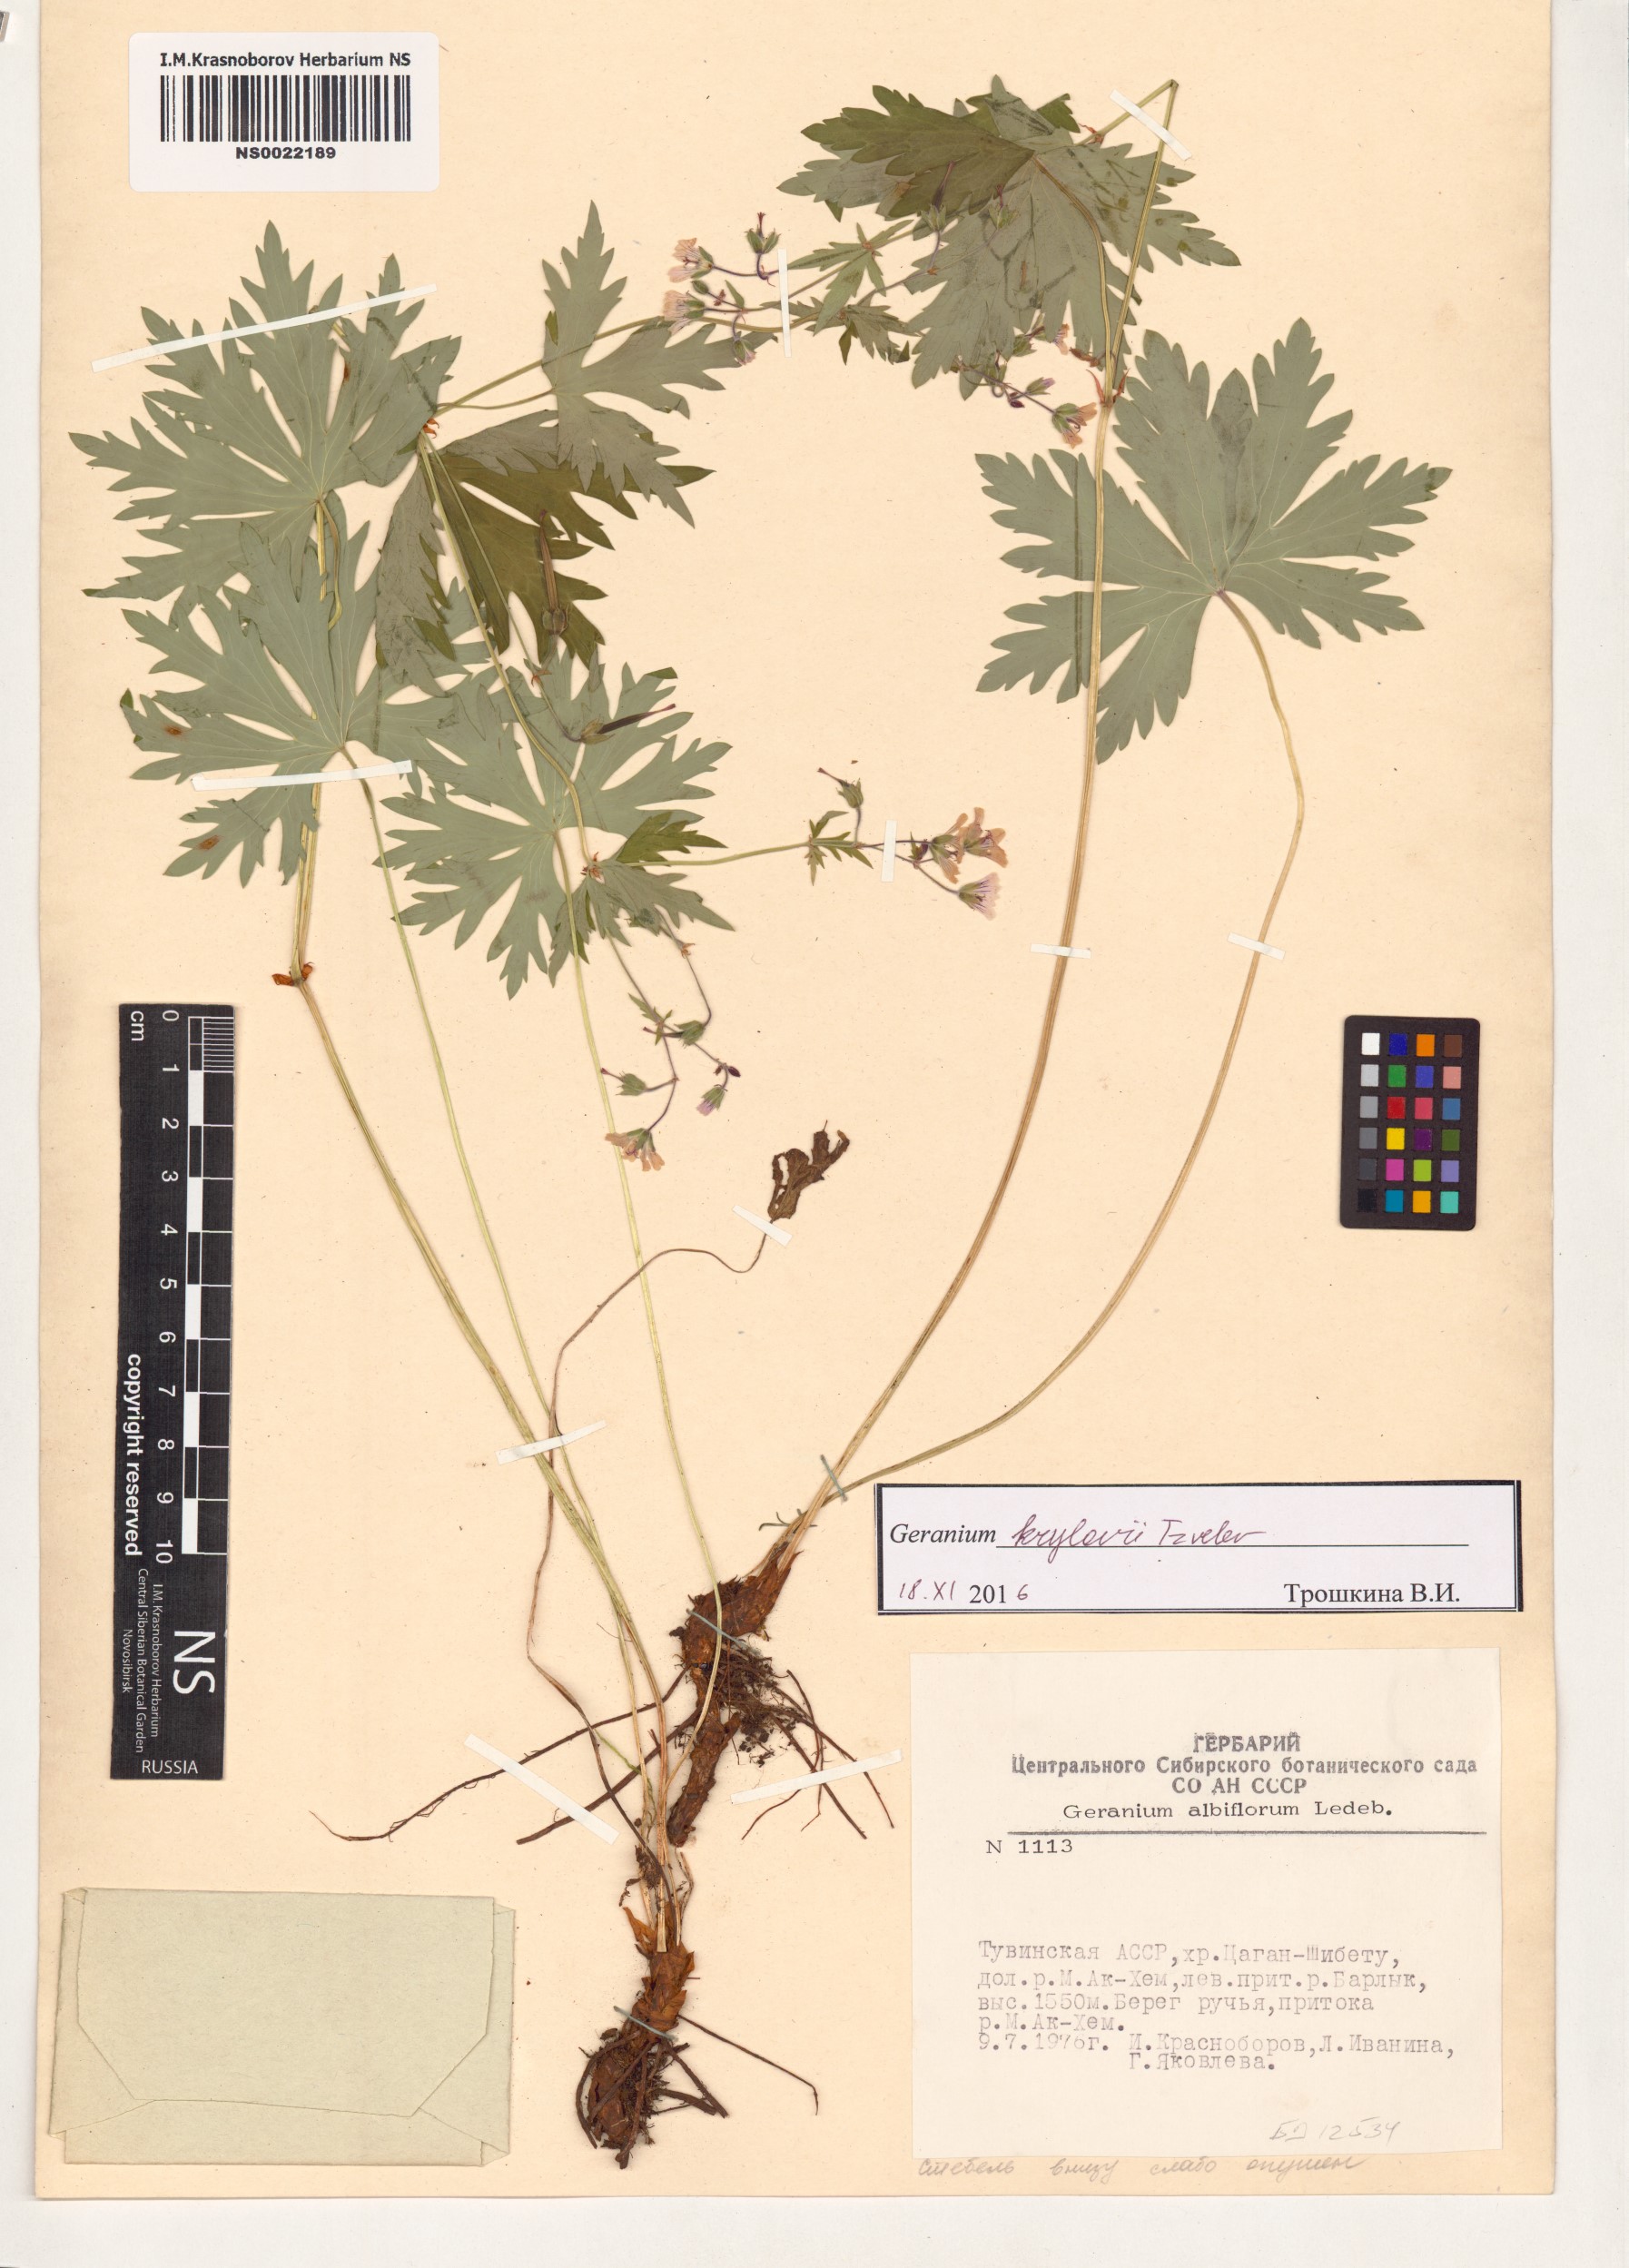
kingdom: Plantae
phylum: Tracheophyta
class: Magnoliopsida
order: Geraniales
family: Geraniaceae
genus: Geranium
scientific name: Geranium sylvaticum
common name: Wood crane's-bill
